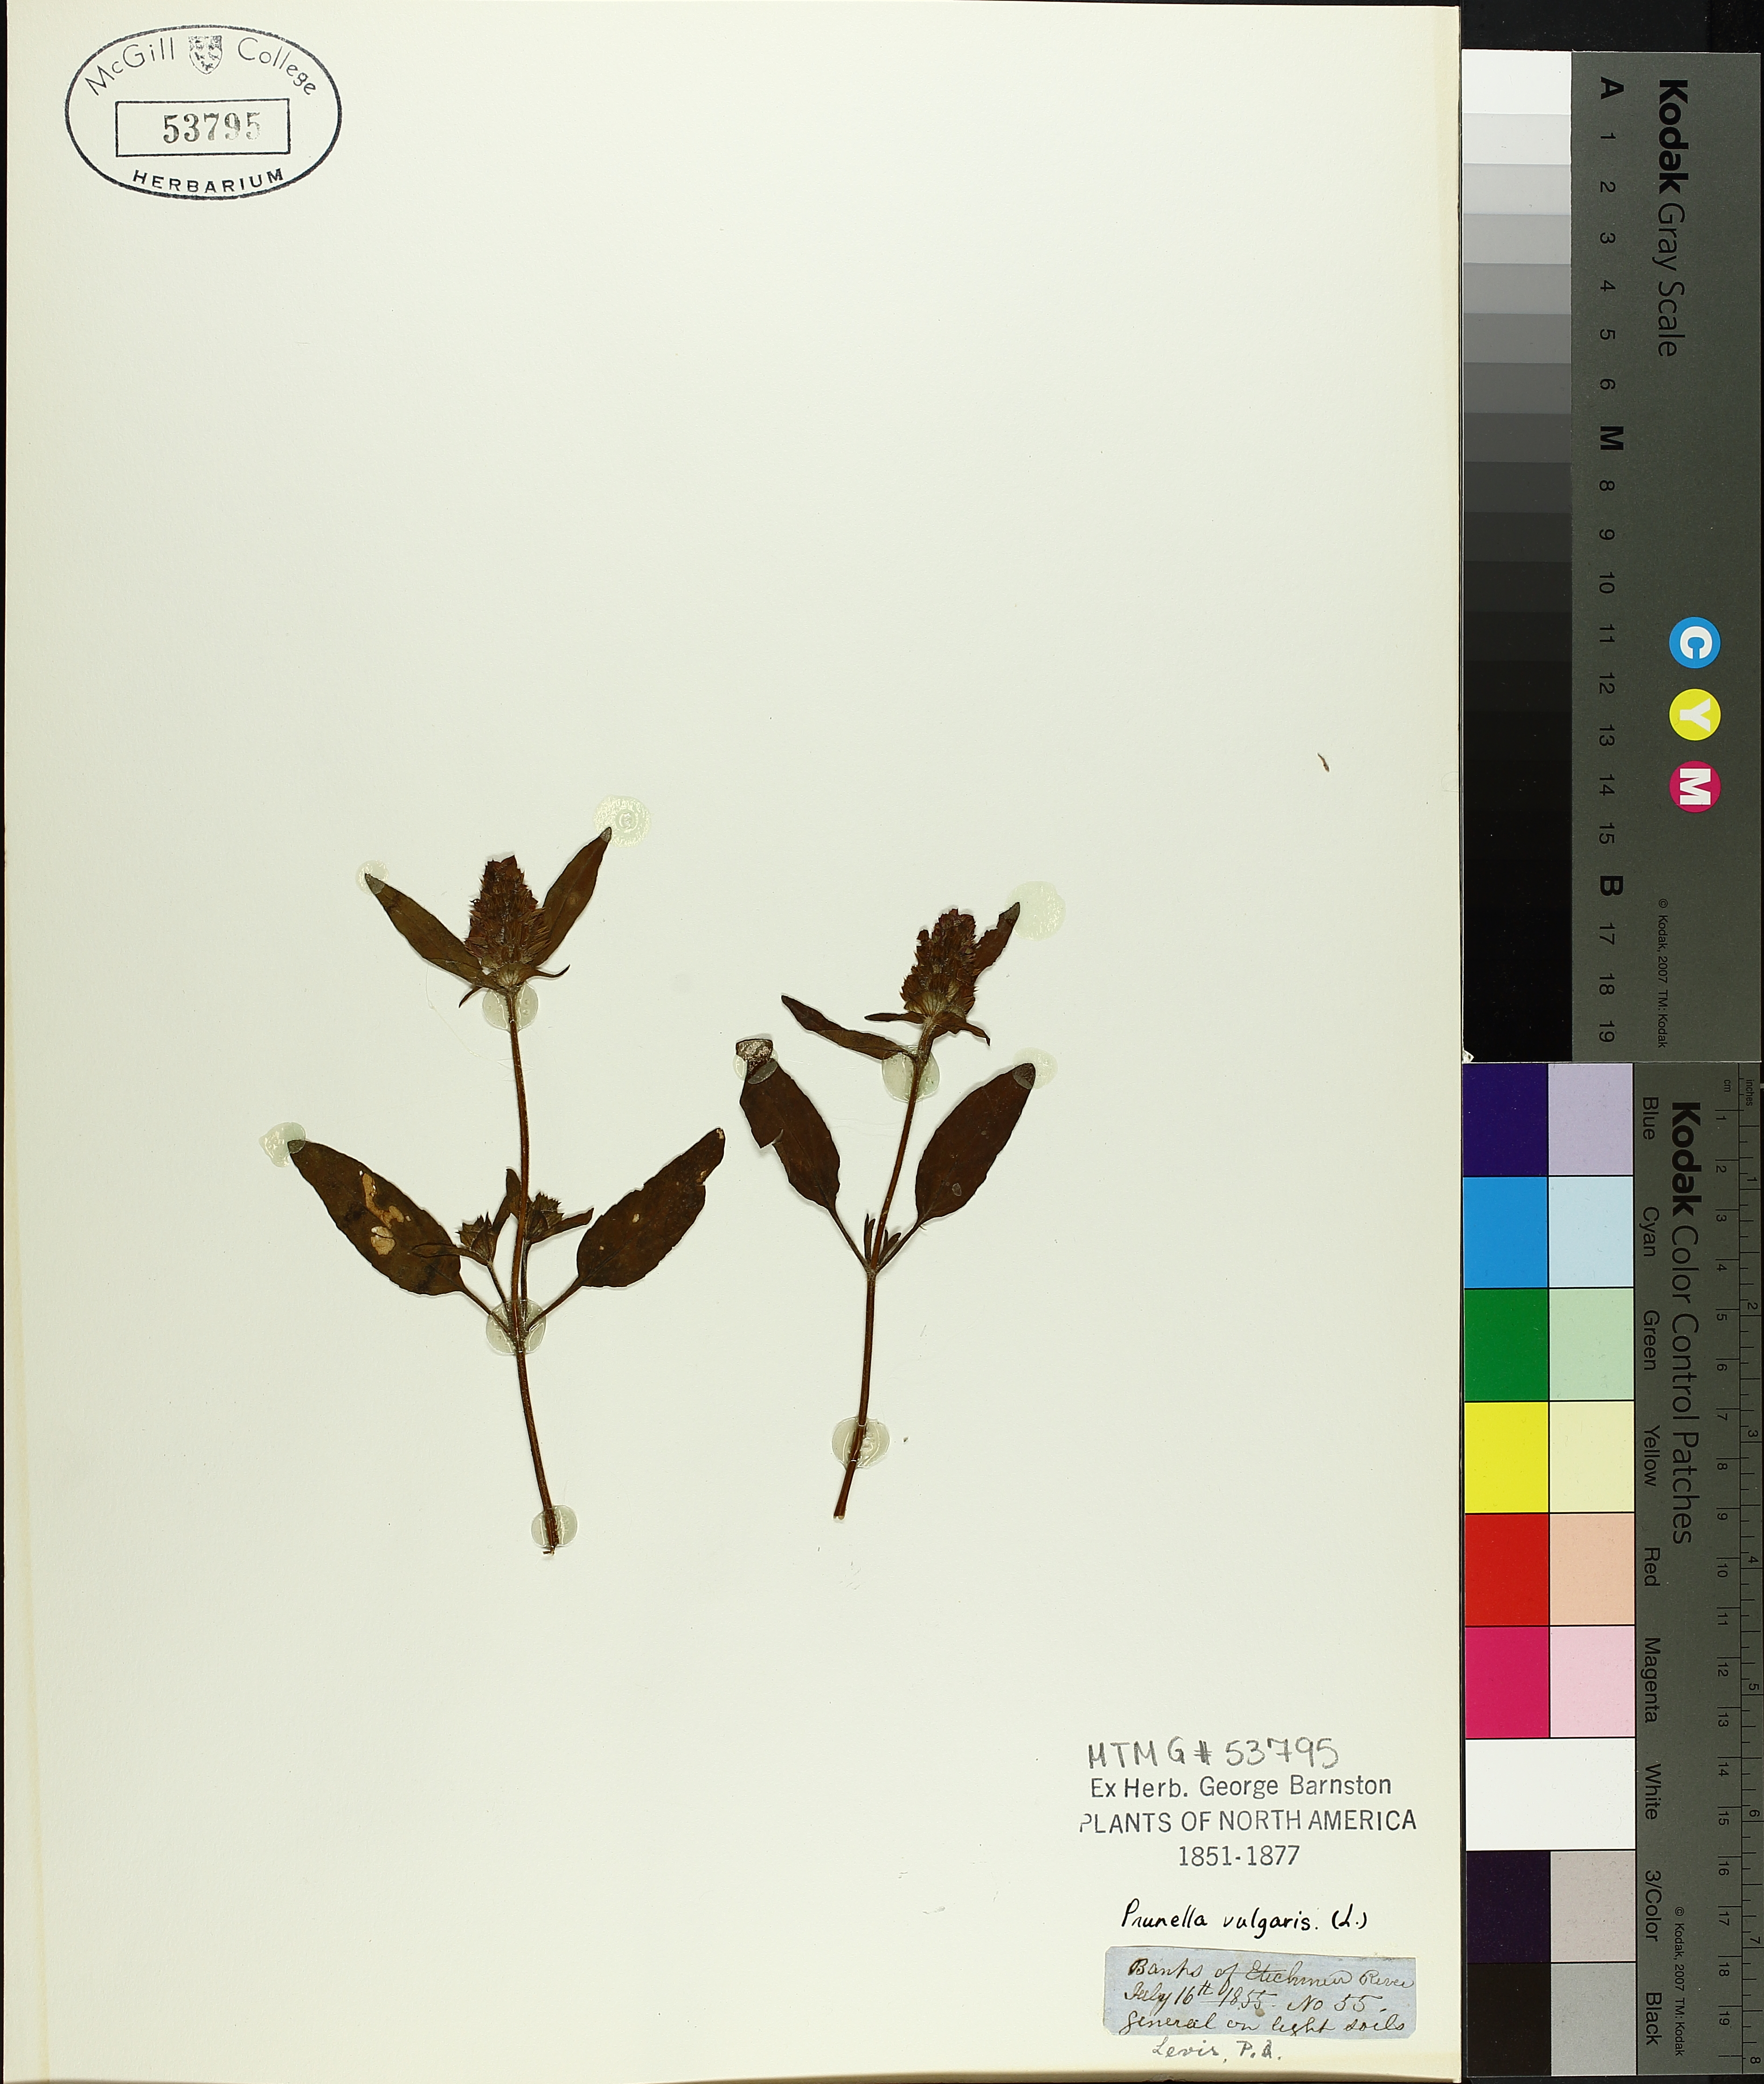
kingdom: Plantae
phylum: Tracheophyta
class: Magnoliopsida
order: Lamiales
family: Lamiaceae
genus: Prunella
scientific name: Prunella vulgaris
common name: Heal-all
